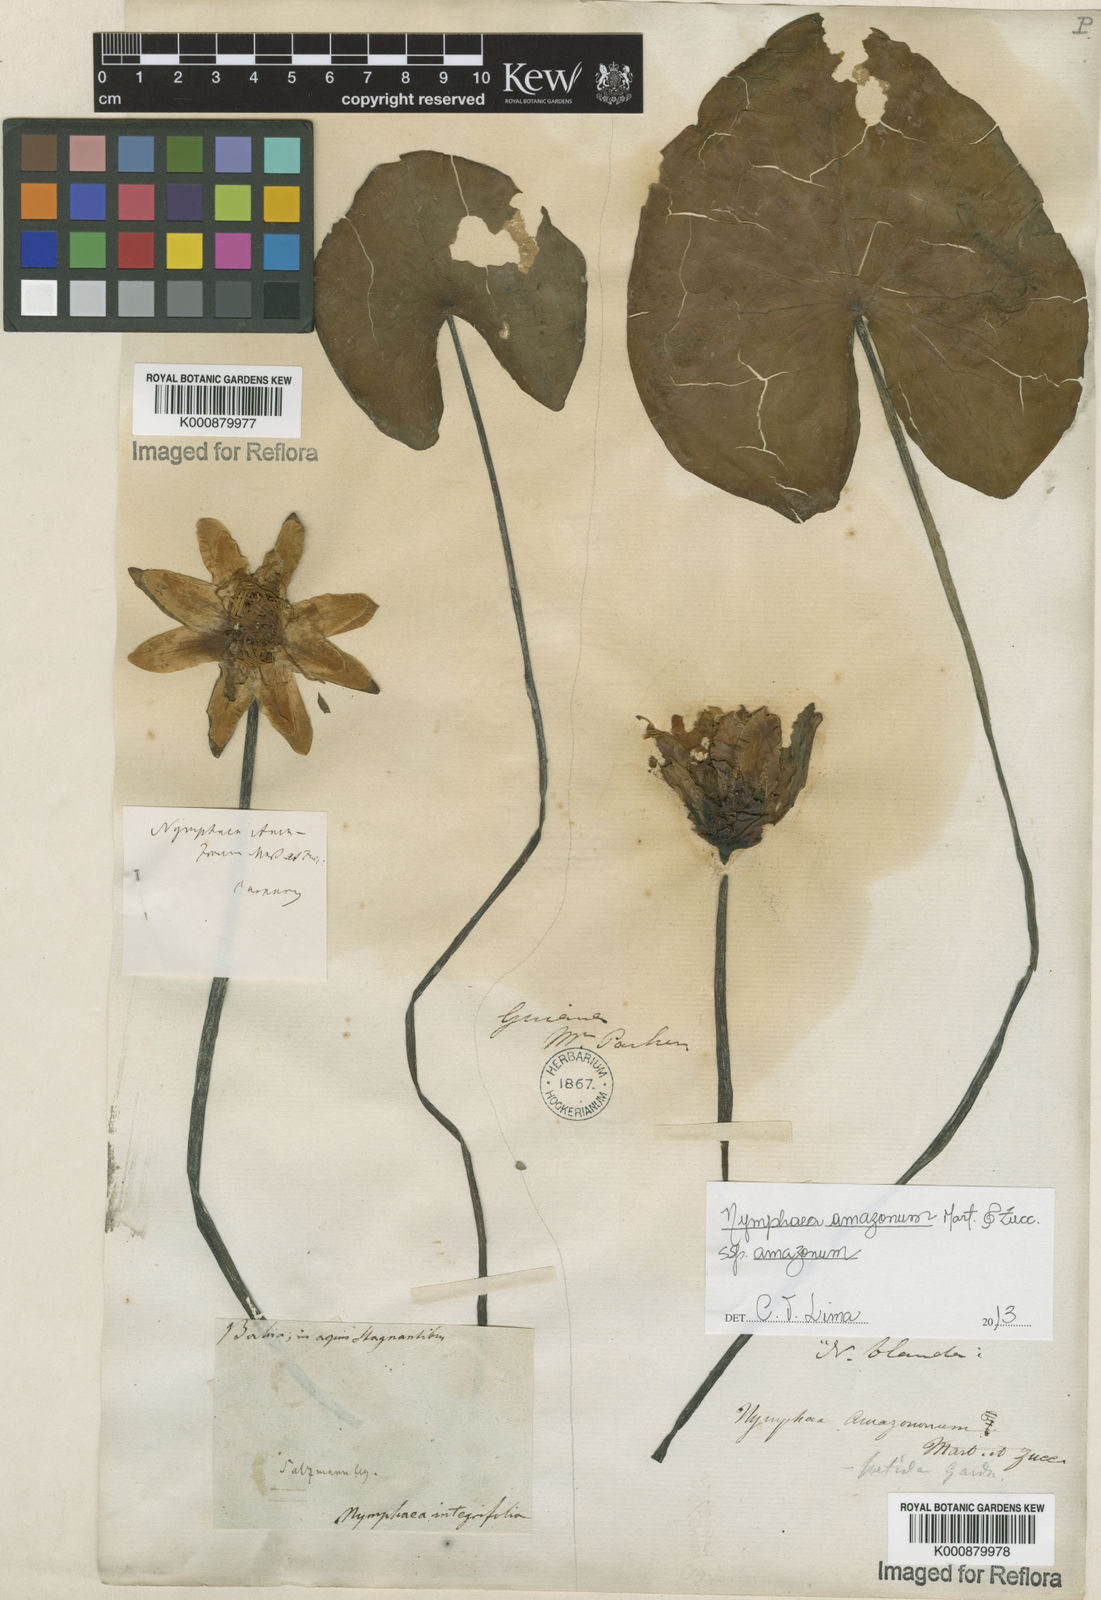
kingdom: Plantae
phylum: Tracheophyta
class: Magnoliopsida
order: Nymphaeales
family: Nymphaeaceae
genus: Nymphaea
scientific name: Nymphaea amazonum
